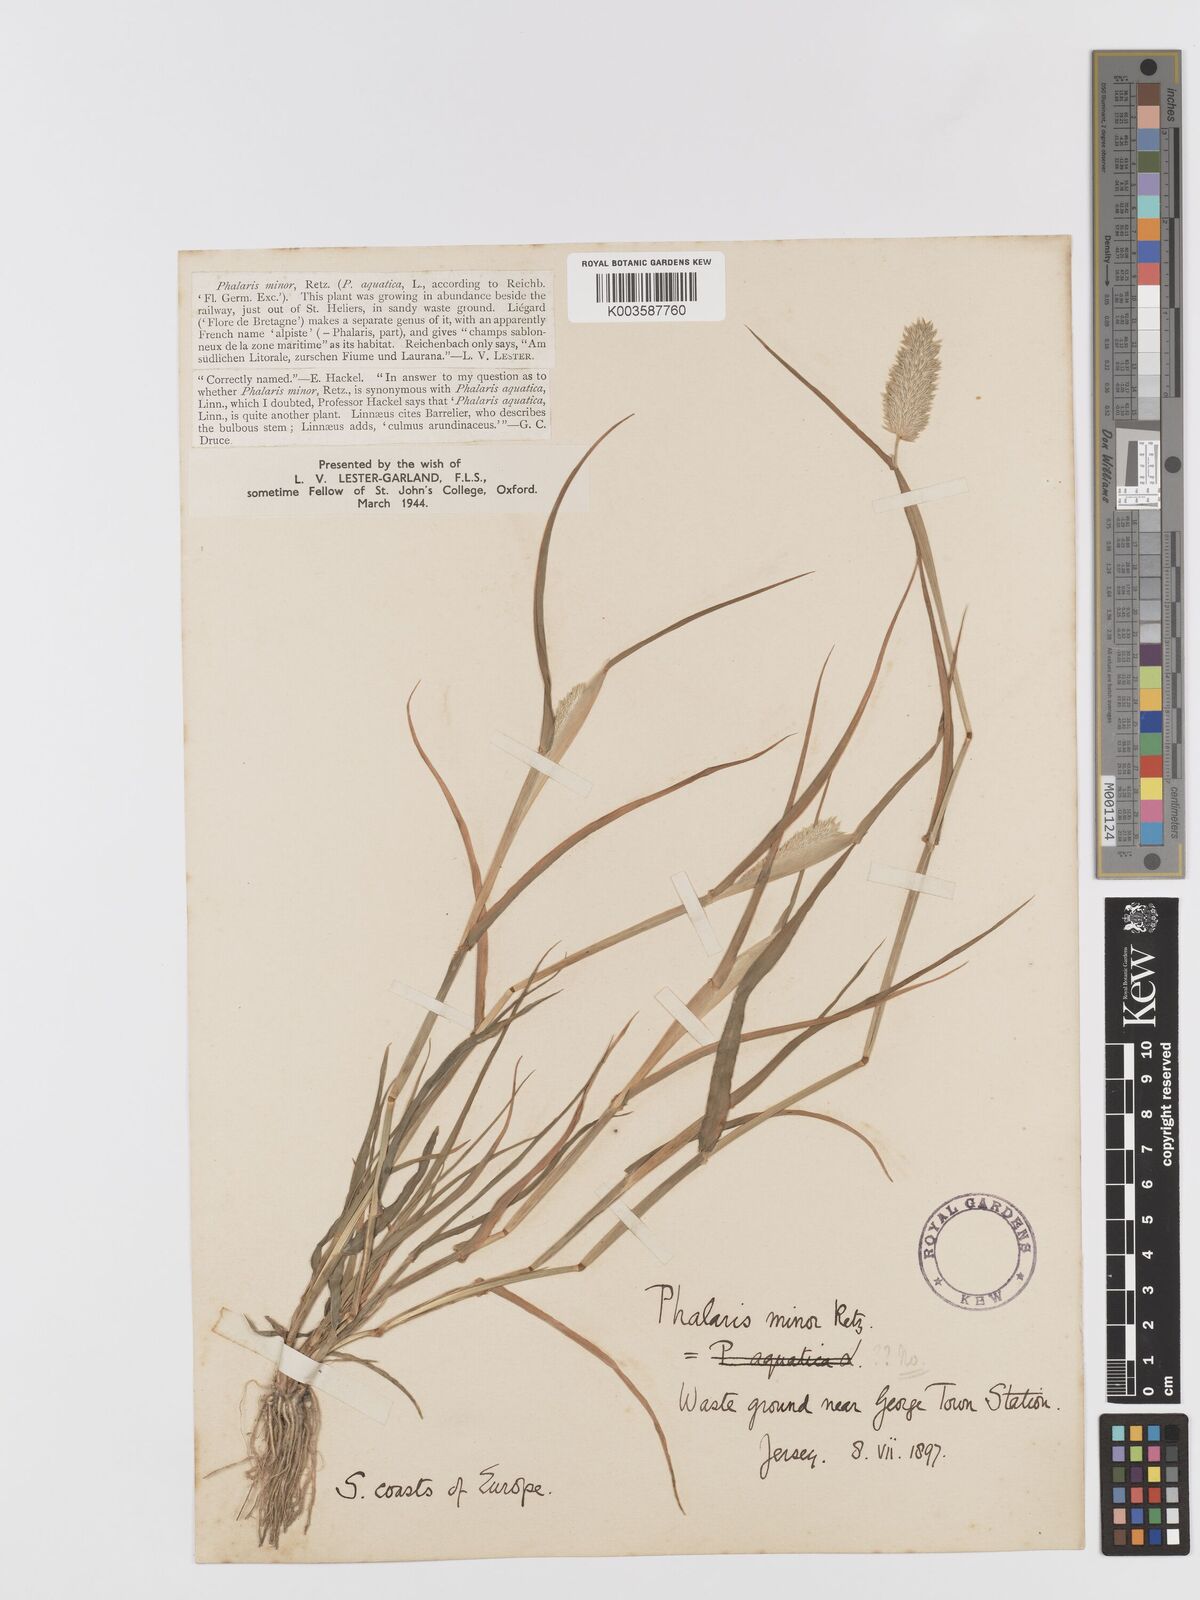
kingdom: Plantae
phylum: Tracheophyta
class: Liliopsida
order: Poales
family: Poaceae
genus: Phalaris
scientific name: Phalaris minor
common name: Littleseed canarygrass
